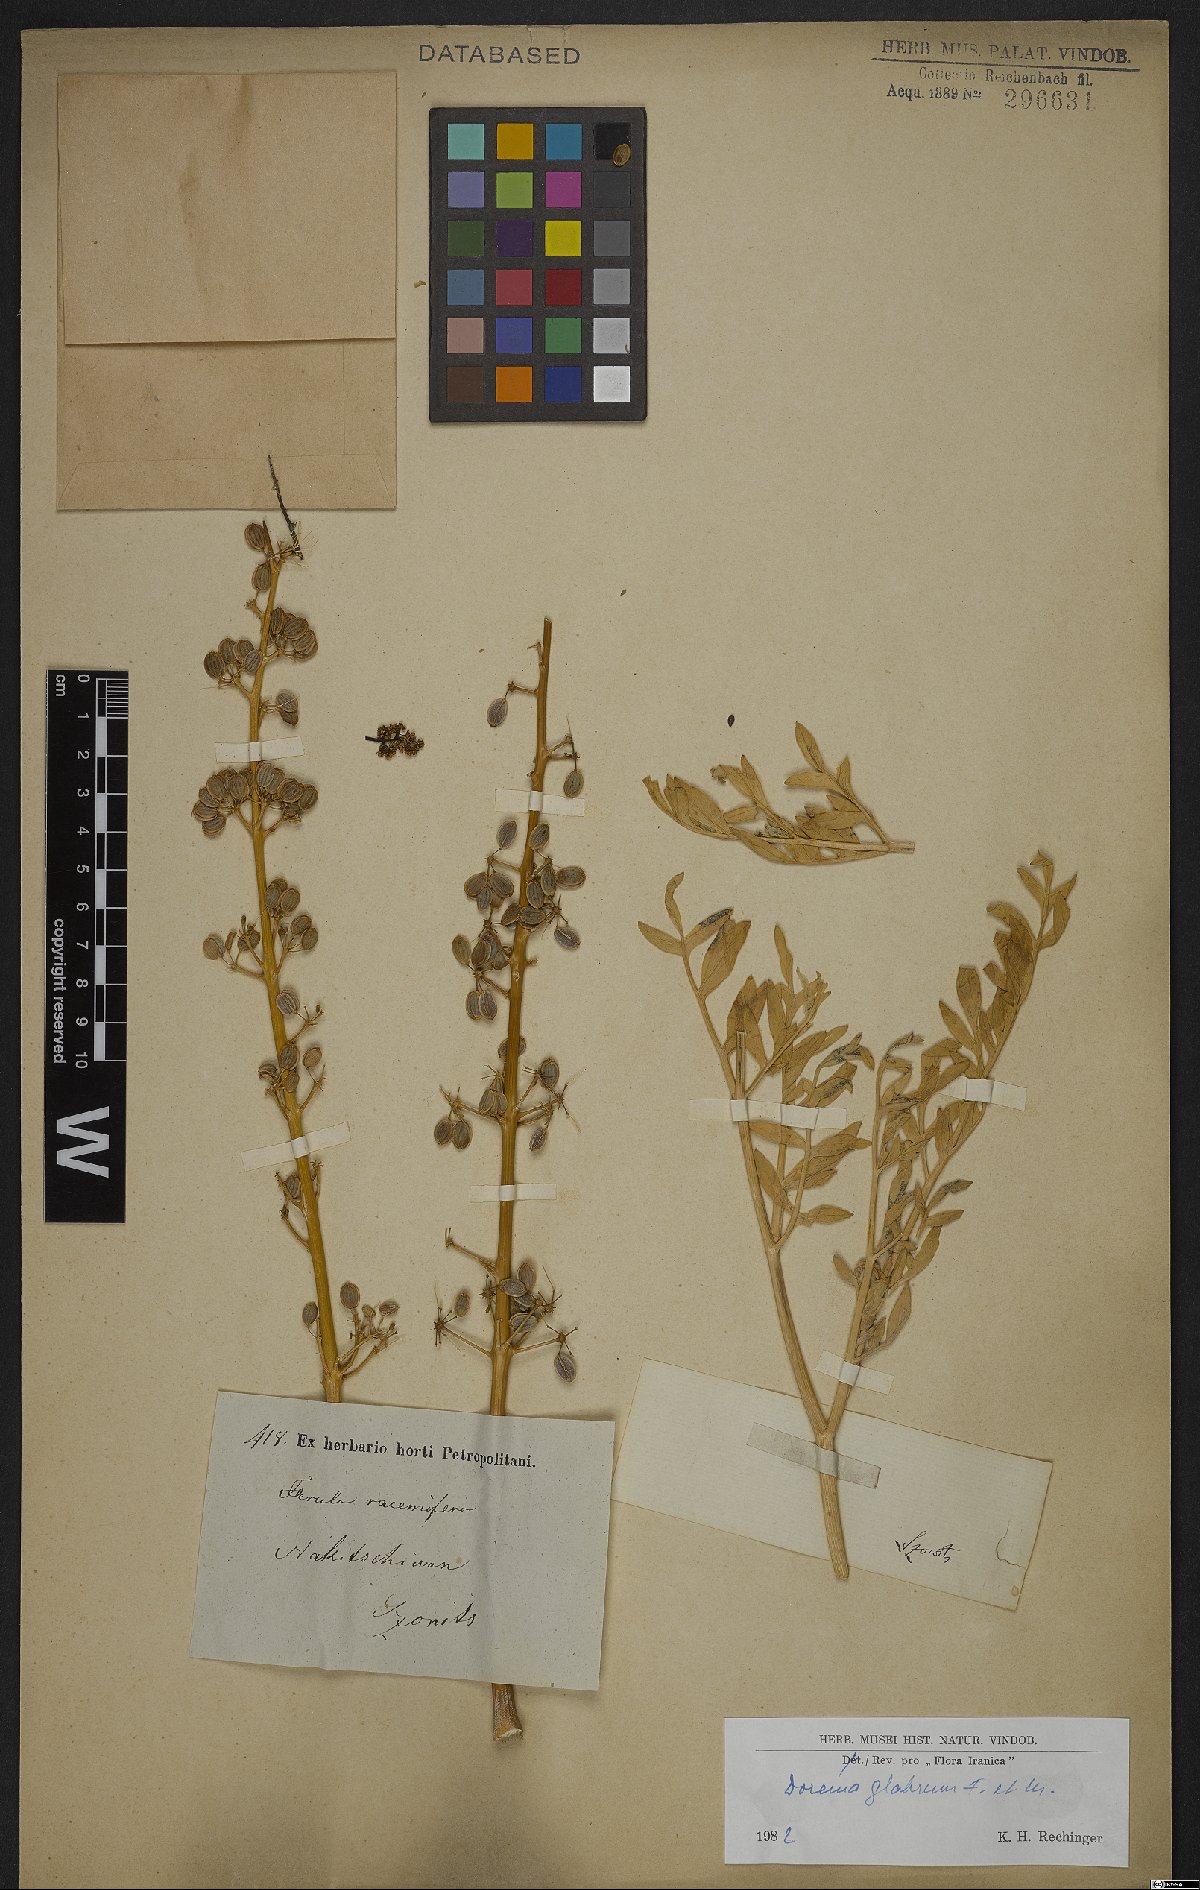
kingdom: Plantae
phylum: Tracheophyta
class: Magnoliopsida
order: Apiales
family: Apiaceae
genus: Ferula
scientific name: Ferula glabrifolia
